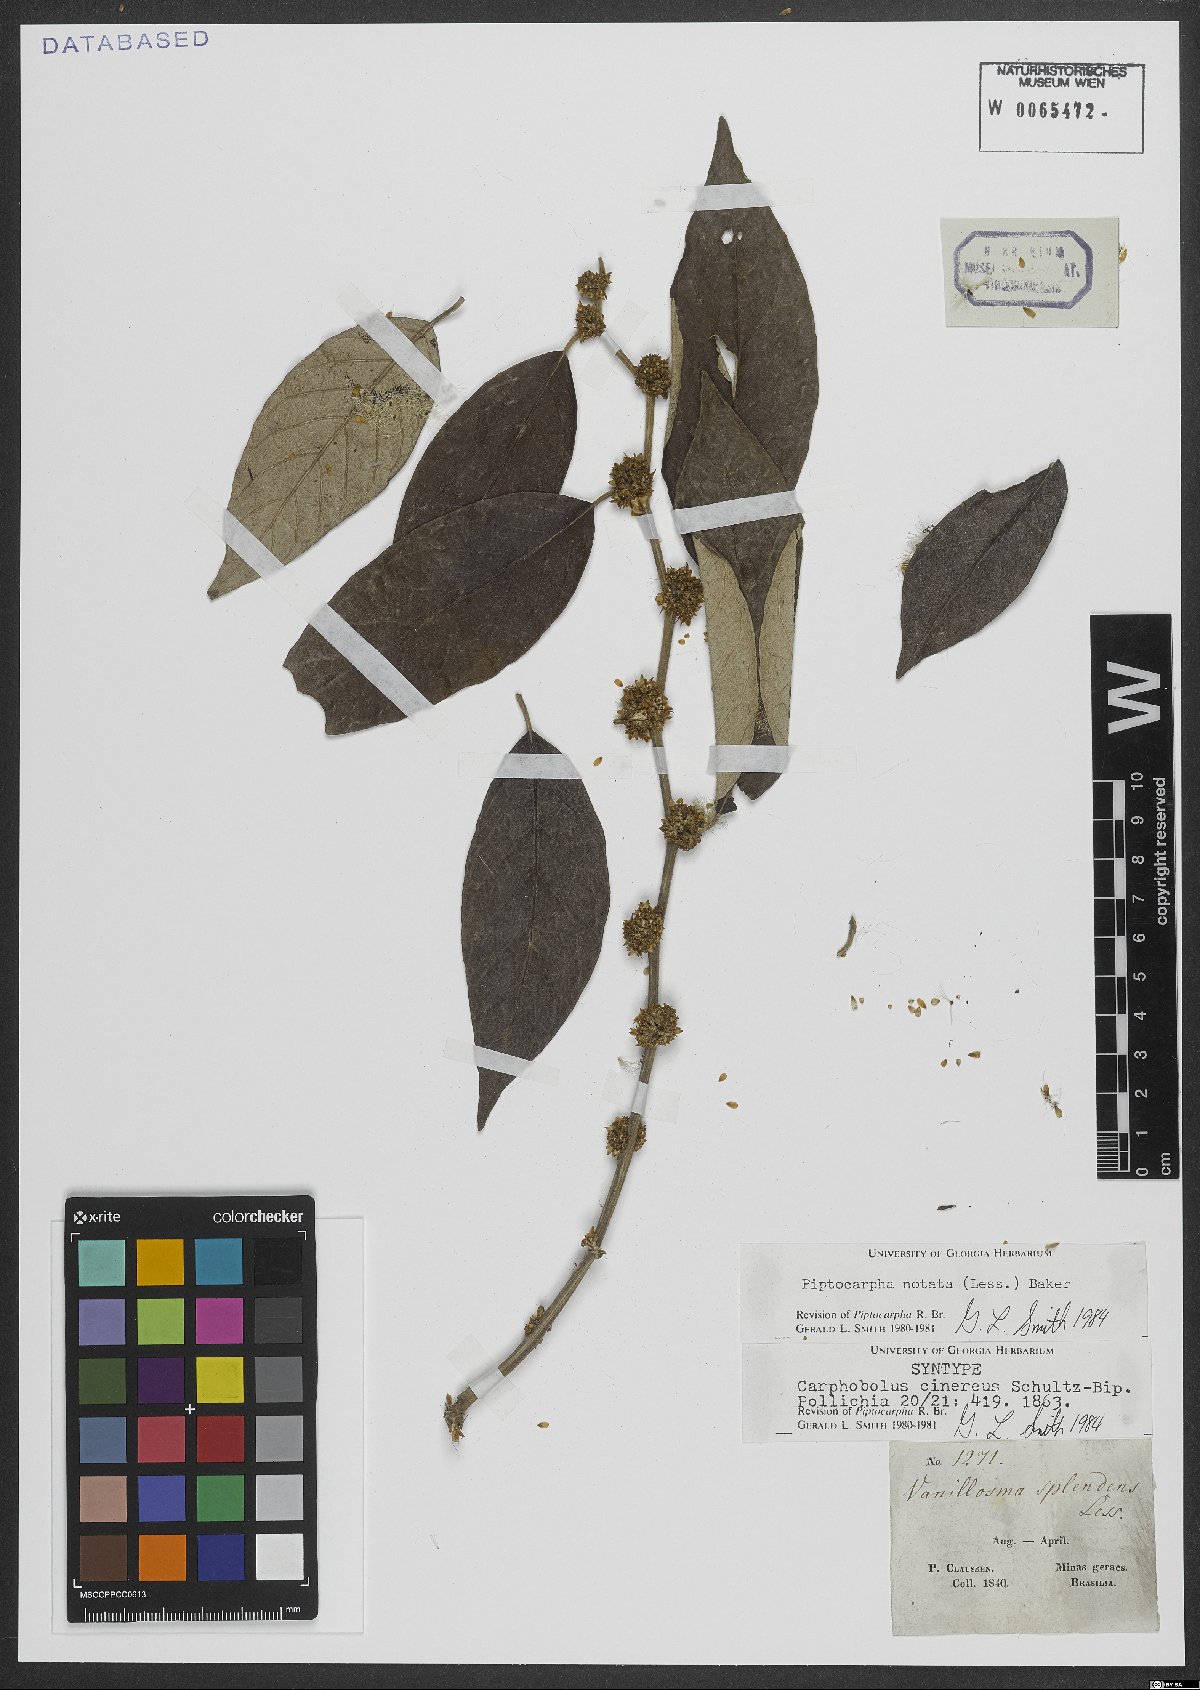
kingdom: Plantae
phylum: Tracheophyta
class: Magnoliopsida
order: Asterales
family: Asteraceae
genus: Piptocarpha
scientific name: Piptocarpha notata
